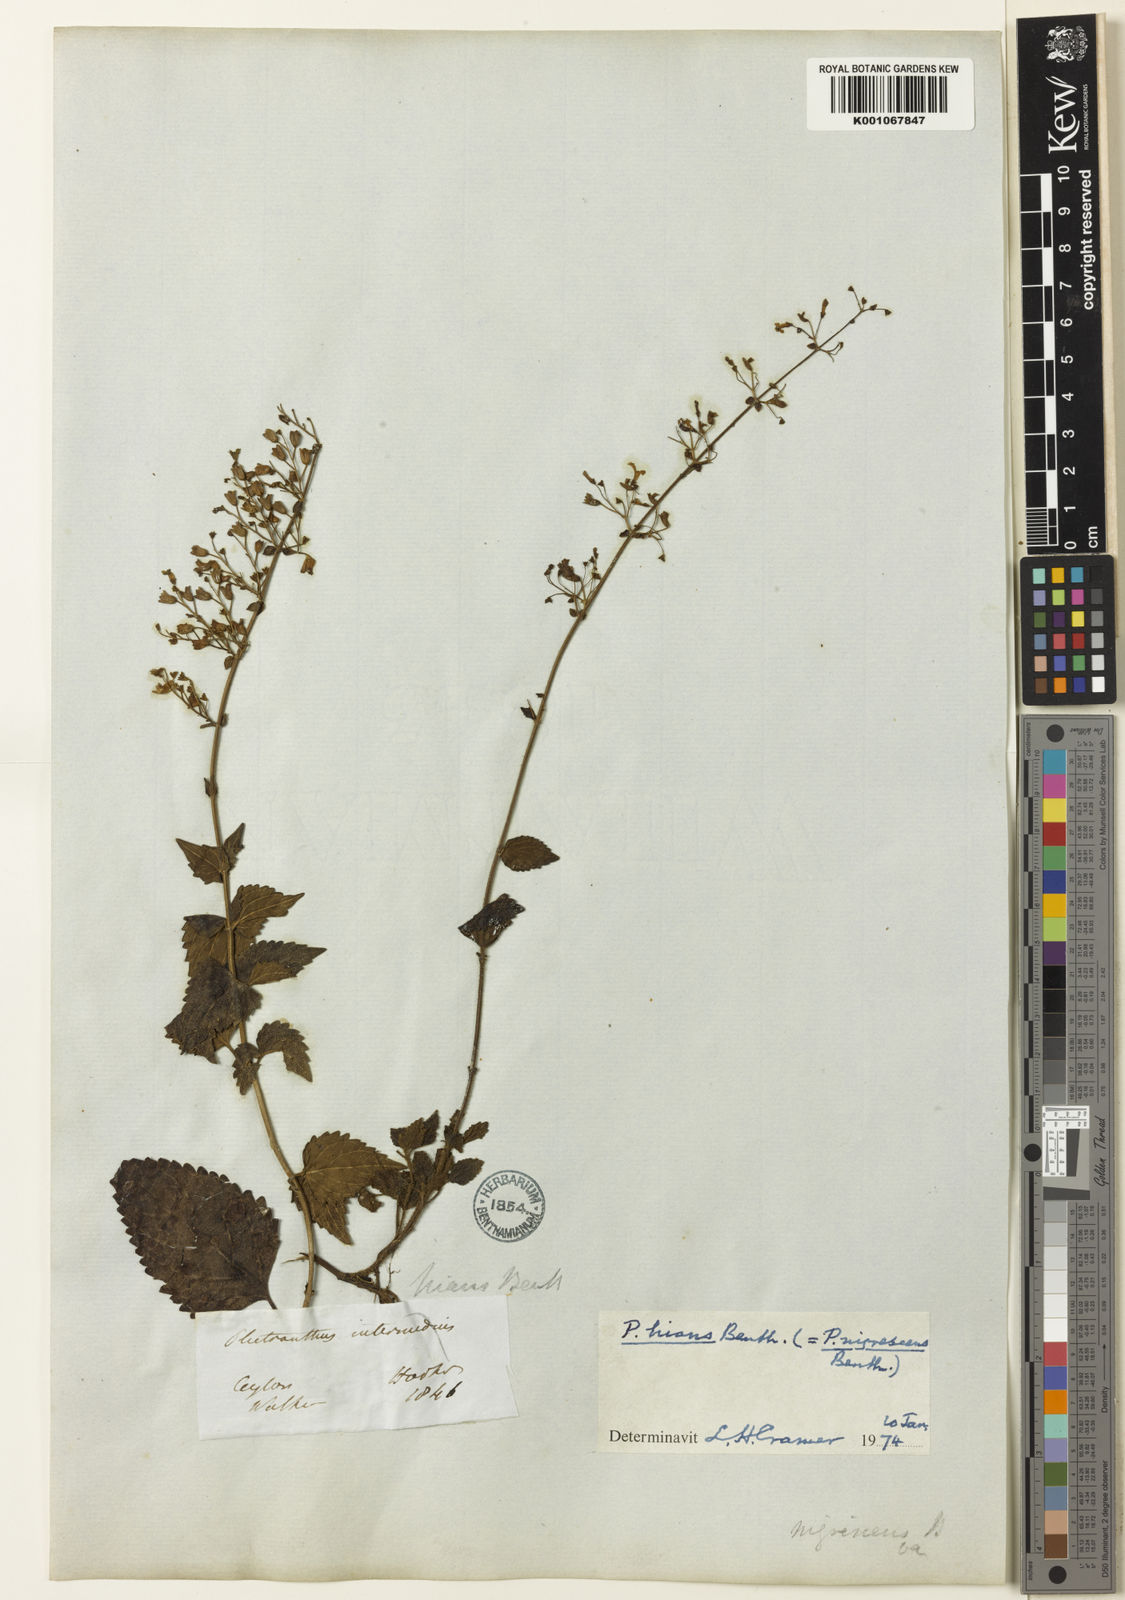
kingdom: Plantae
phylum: Tracheophyta
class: Magnoliopsida
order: Lamiales
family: Lamiaceae
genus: Isodon
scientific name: Isodon nigrescens
